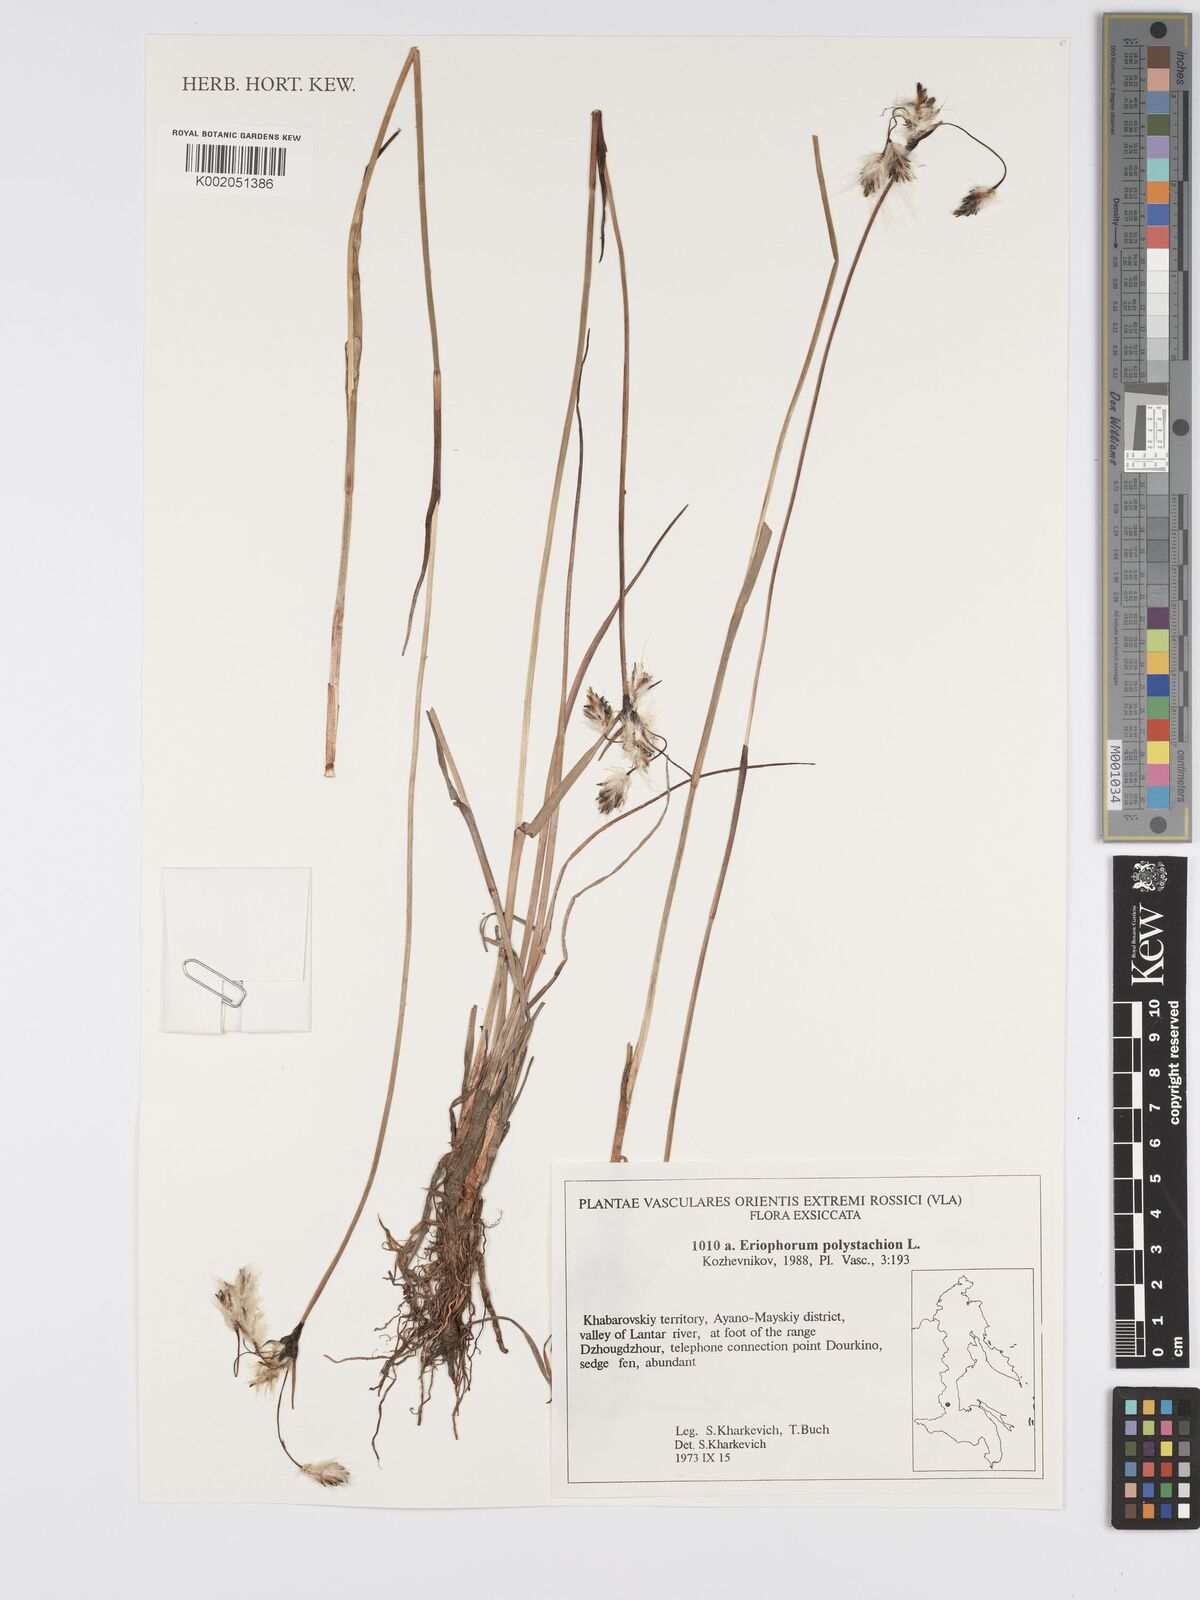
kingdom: Plantae
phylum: Tracheophyta
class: Liliopsida
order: Poales
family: Cyperaceae
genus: Eriophorum
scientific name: Eriophorum angustifolium
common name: Common cottongrass
